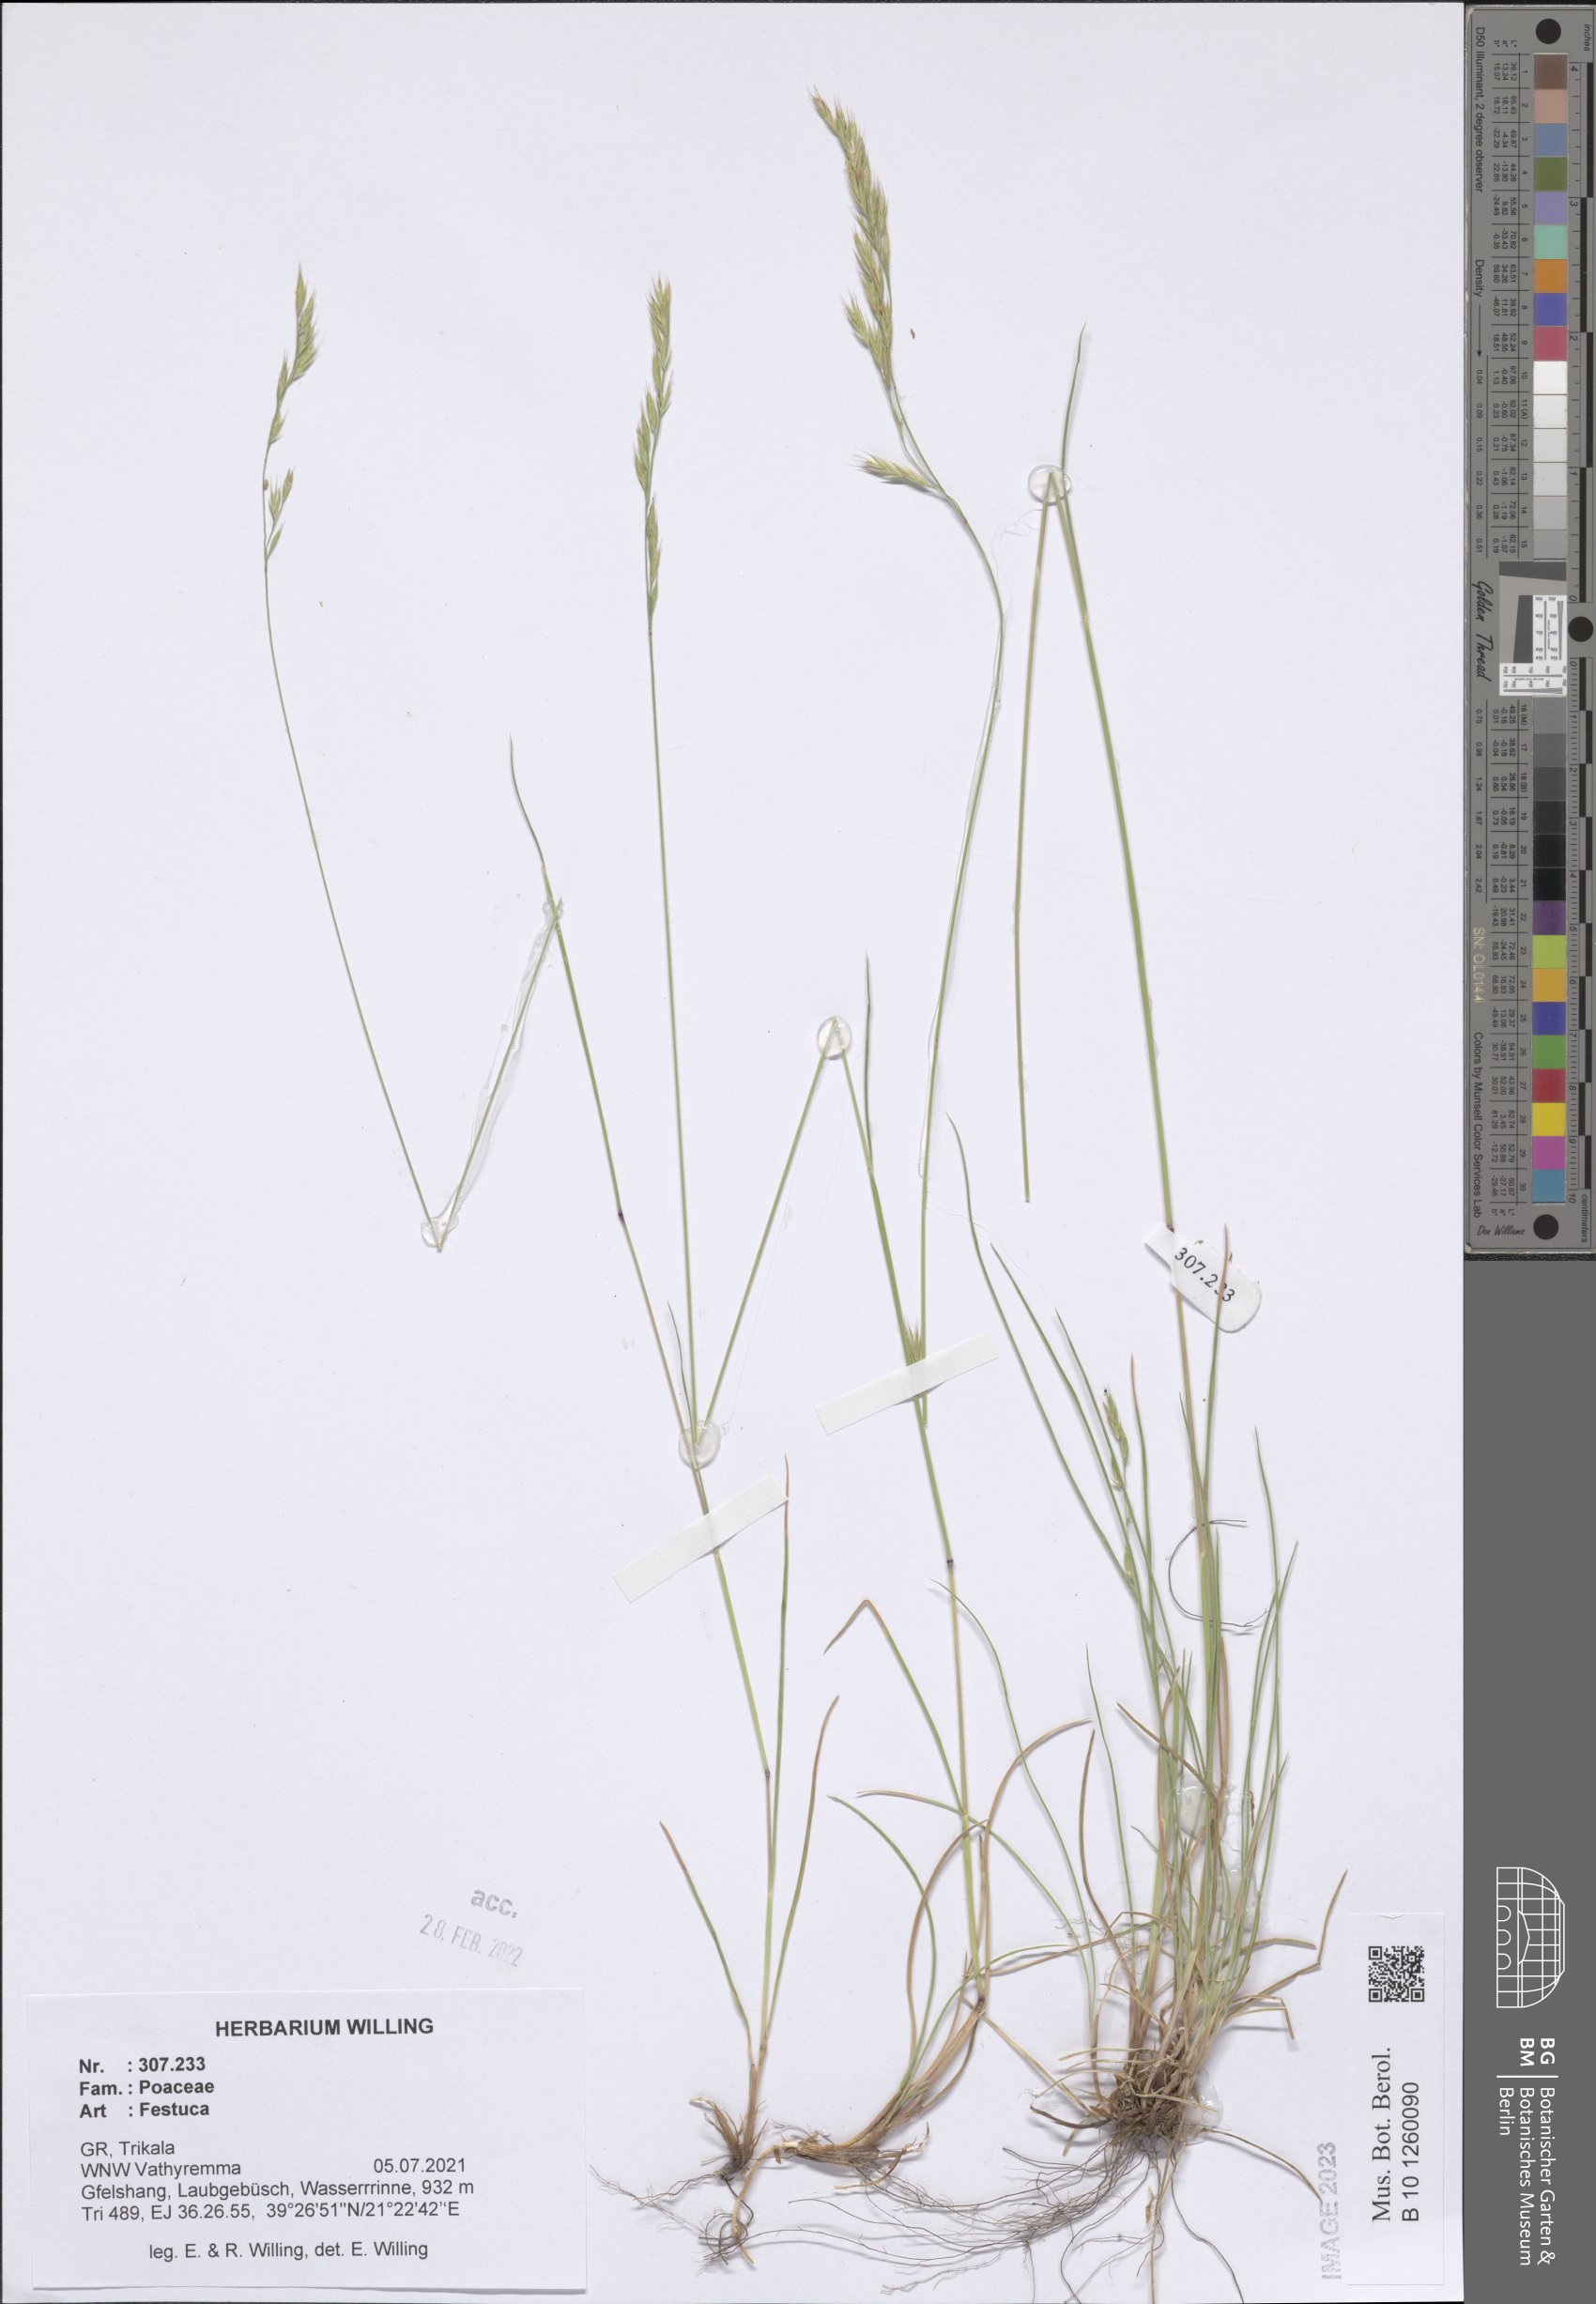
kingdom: Plantae
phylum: Tracheophyta
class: Liliopsida
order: Poales
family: Poaceae
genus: Festuca
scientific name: Festuca
